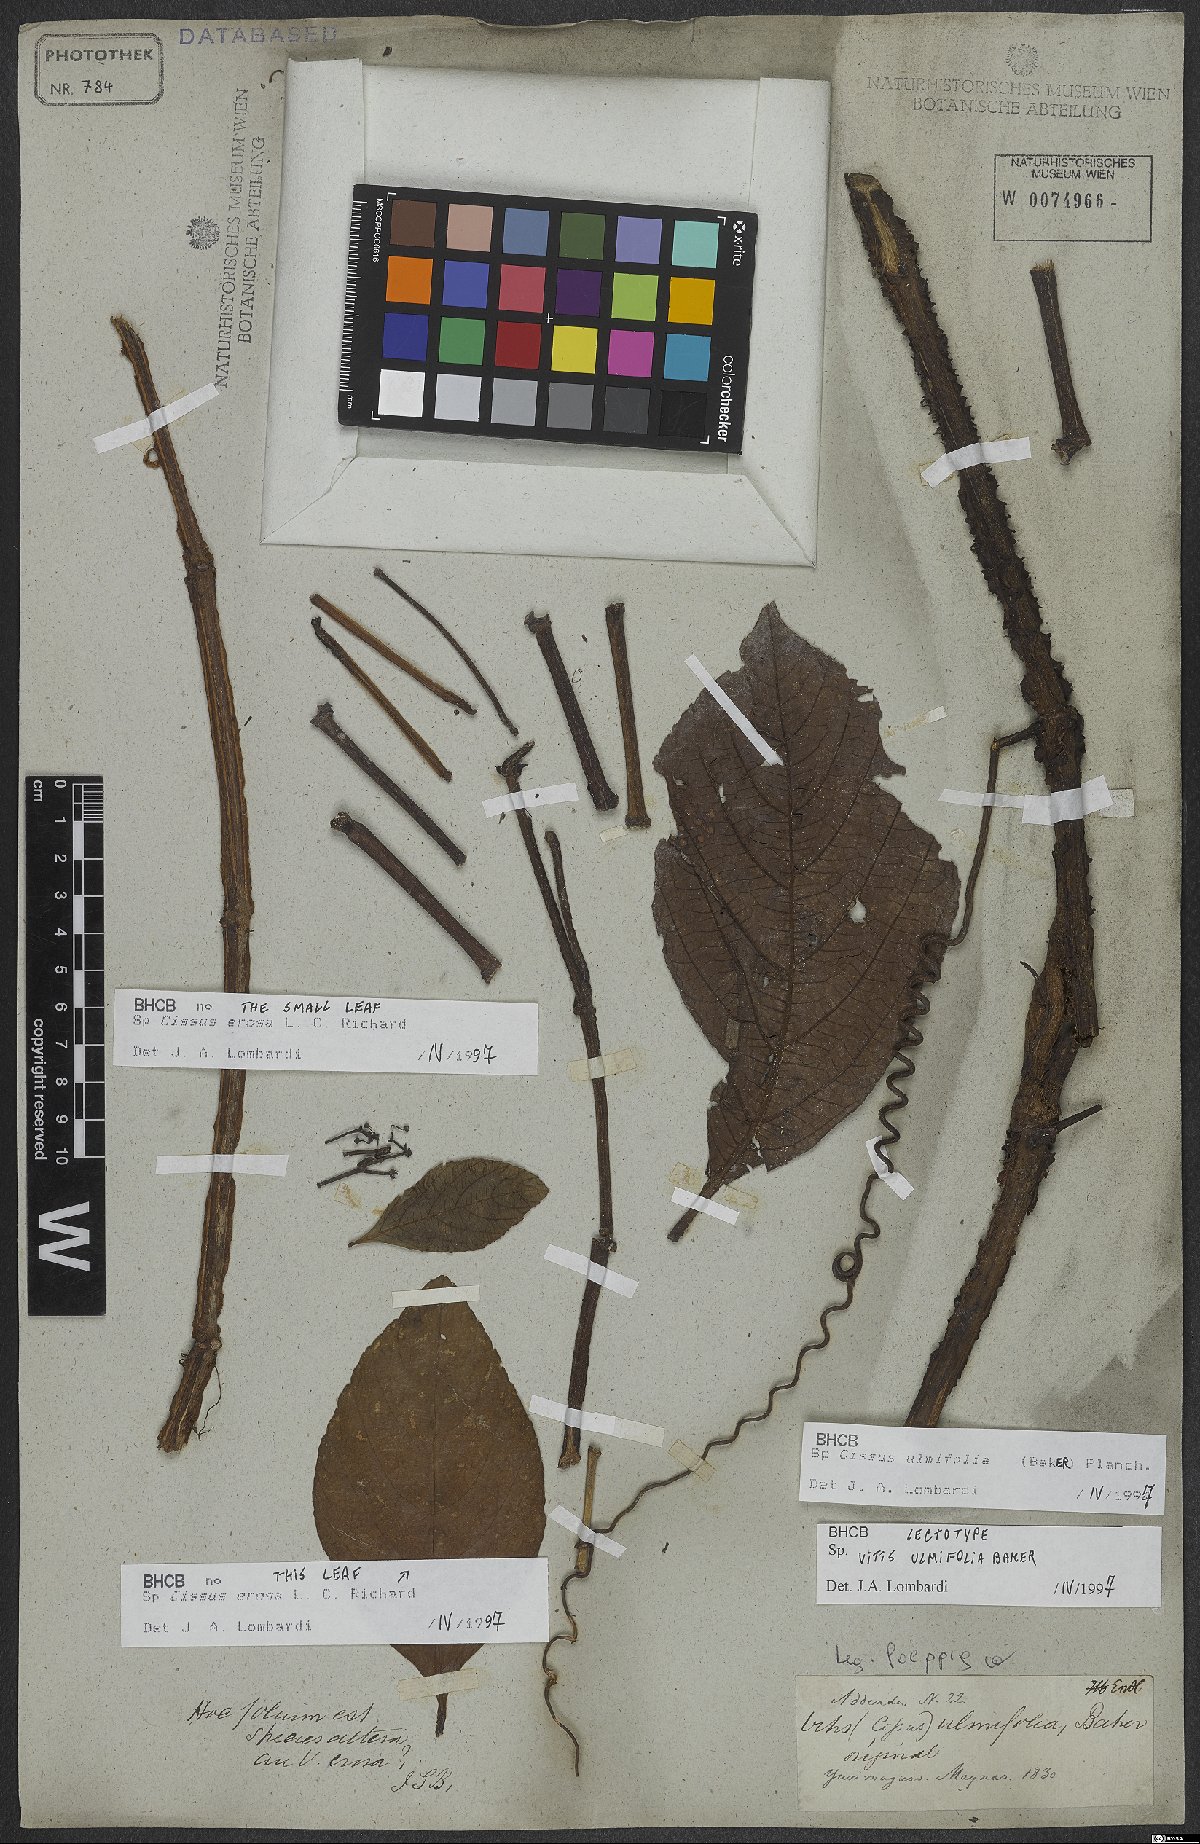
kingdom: Plantae
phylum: Tracheophyta
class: Magnoliopsida
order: Vitales
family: Vitaceae
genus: Cissus
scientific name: Cissus lombardiana
